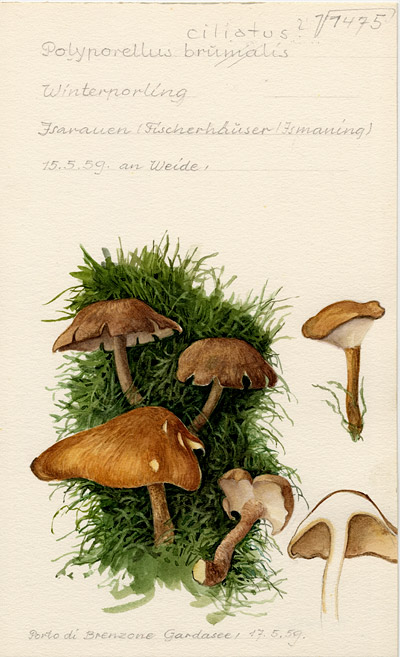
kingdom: Fungi
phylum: Basidiomycota
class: Agaricomycetes
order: Polyporales
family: Polyporaceae
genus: Lentinus
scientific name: Lentinus substrictus
